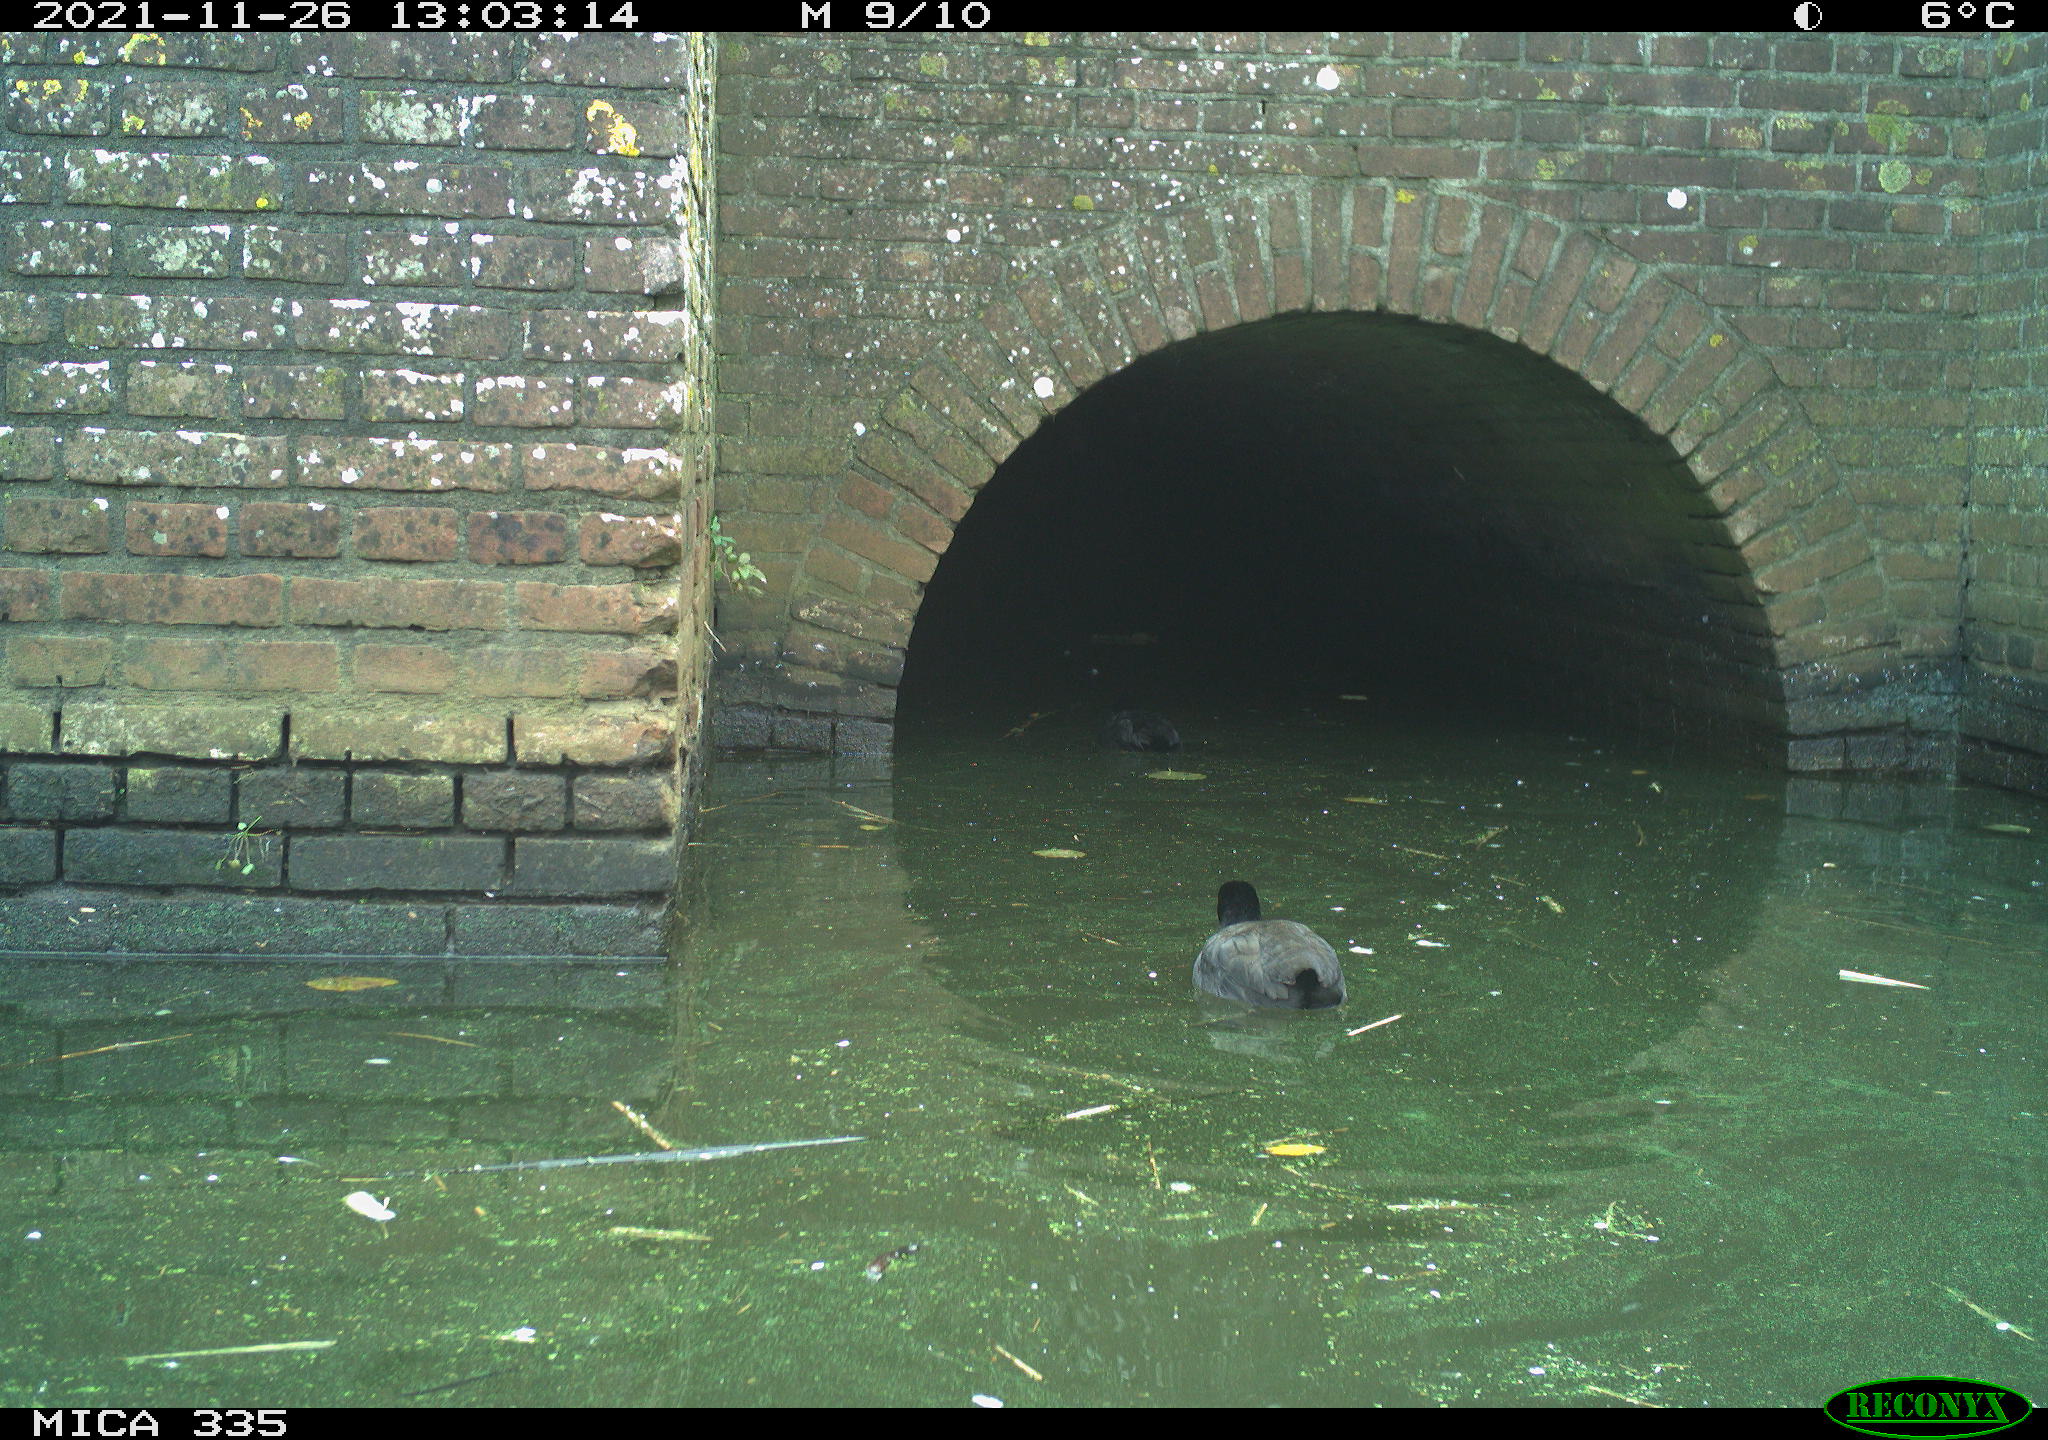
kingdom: Animalia
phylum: Chordata
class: Aves
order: Gruiformes
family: Rallidae
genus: Fulica
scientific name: Fulica atra
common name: Eurasian coot
